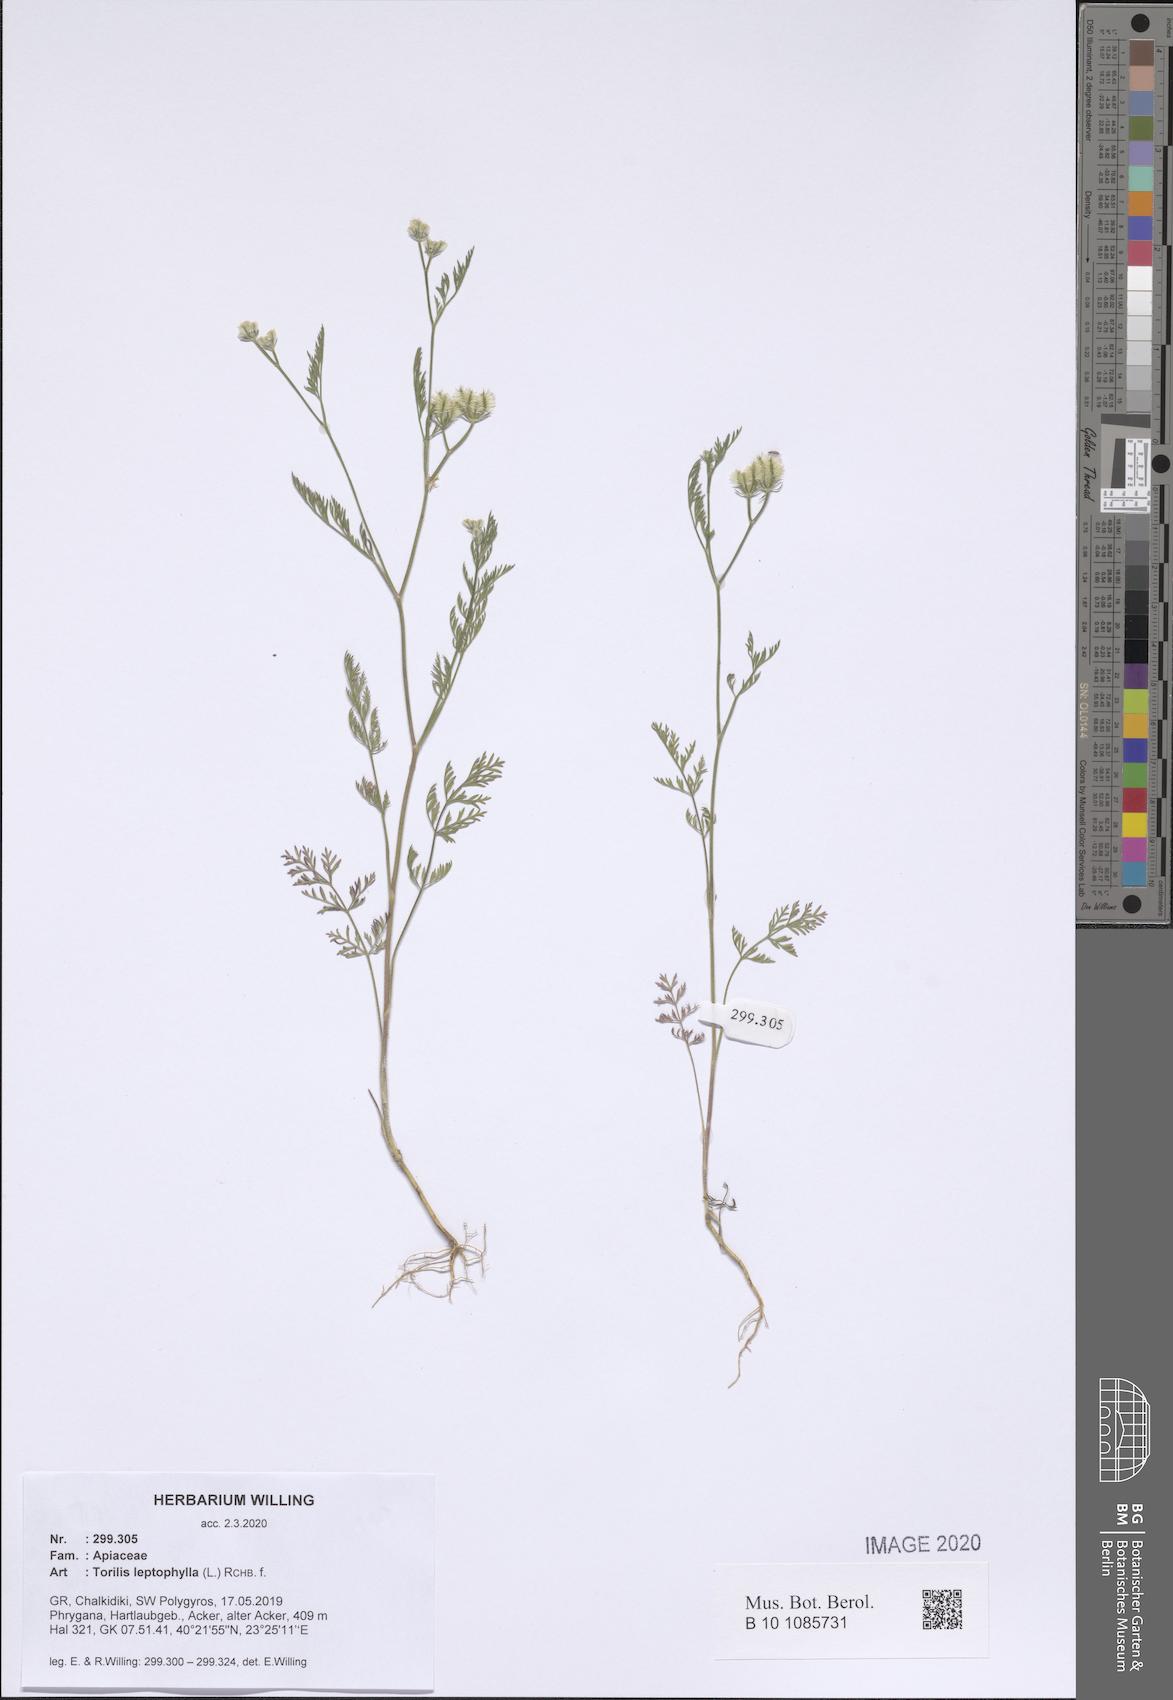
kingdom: Plantae
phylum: Tracheophyta
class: Magnoliopsida
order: Apiales
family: Apiaceae
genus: Torilis
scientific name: Torilis leptophylla
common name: Bristlefruit hedgeparsley
